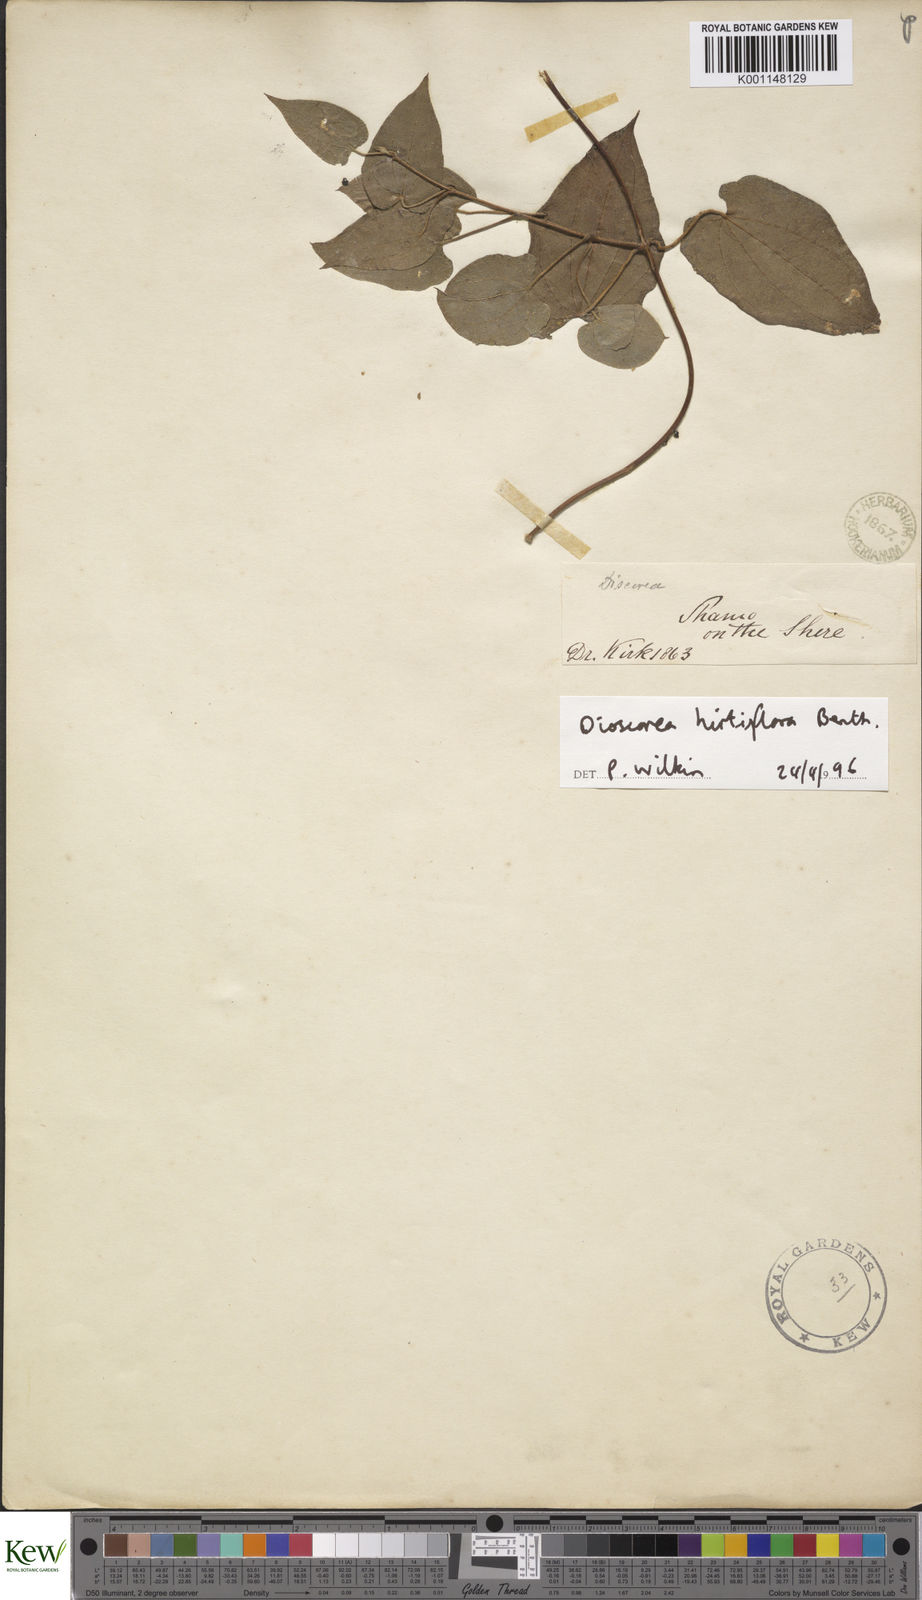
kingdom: Plantae
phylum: Tracheophyta
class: Liliopsida
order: Dioscoreales
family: Dioscoreaceae
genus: Dioscorea
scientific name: Dioscorea hirtiflora
